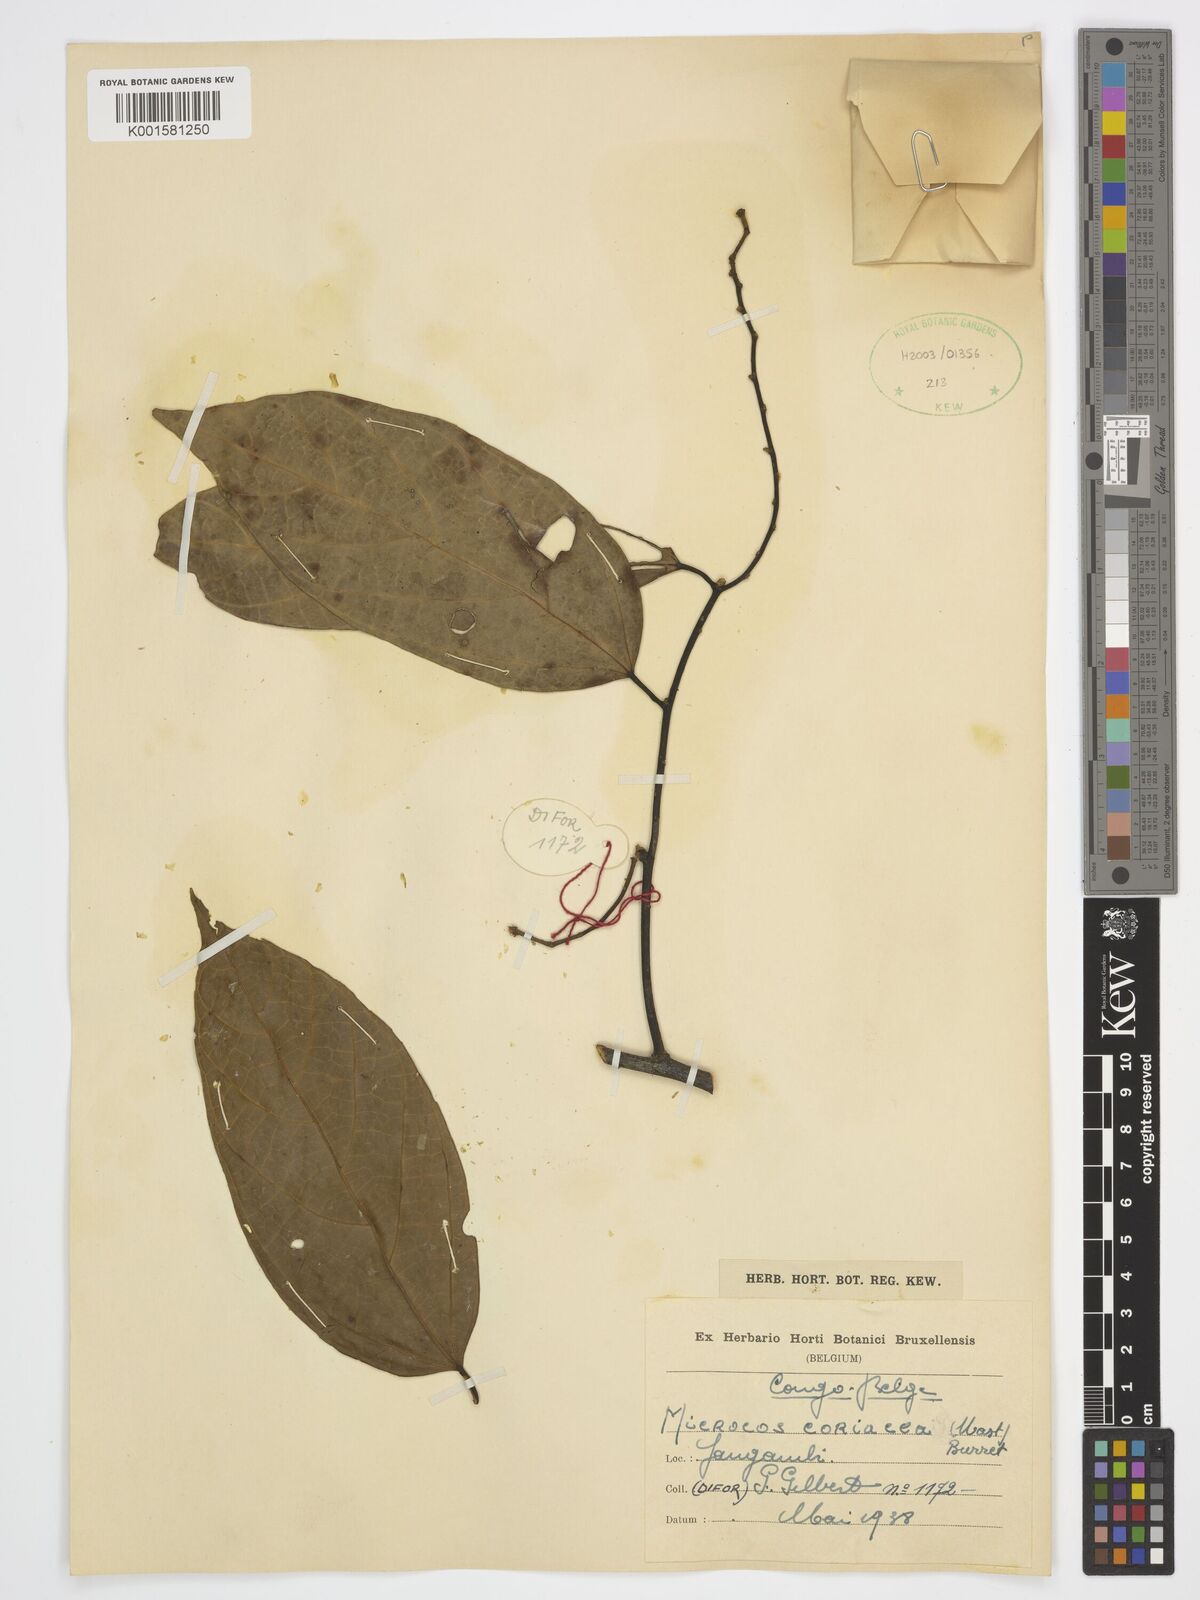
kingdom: Plantae
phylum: Tracheophyta
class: Magnoliopsida
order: Malvales
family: Malvaceae
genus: Microcos
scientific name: Microcos coriacea
